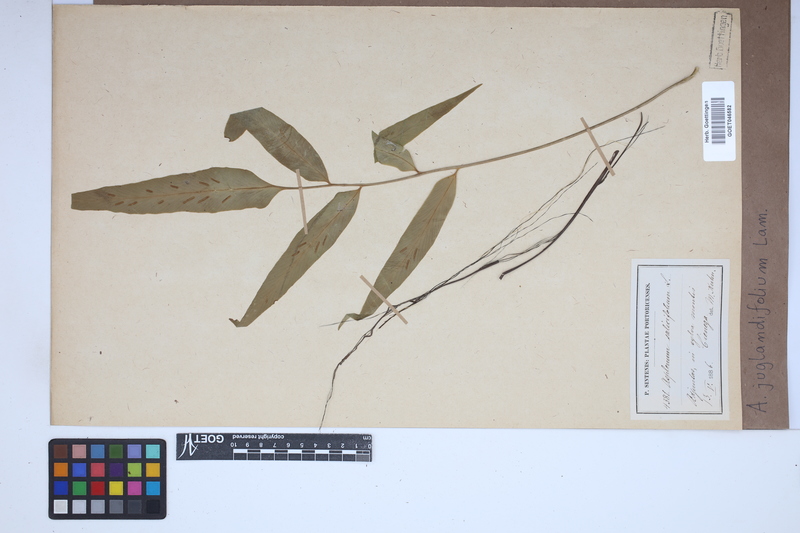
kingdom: Plantae
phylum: Tracheophyta
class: Polypodiopsida
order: Polypodiales
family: Aspleniaceae
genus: Asplenium
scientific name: Asplenium juglandifolium
